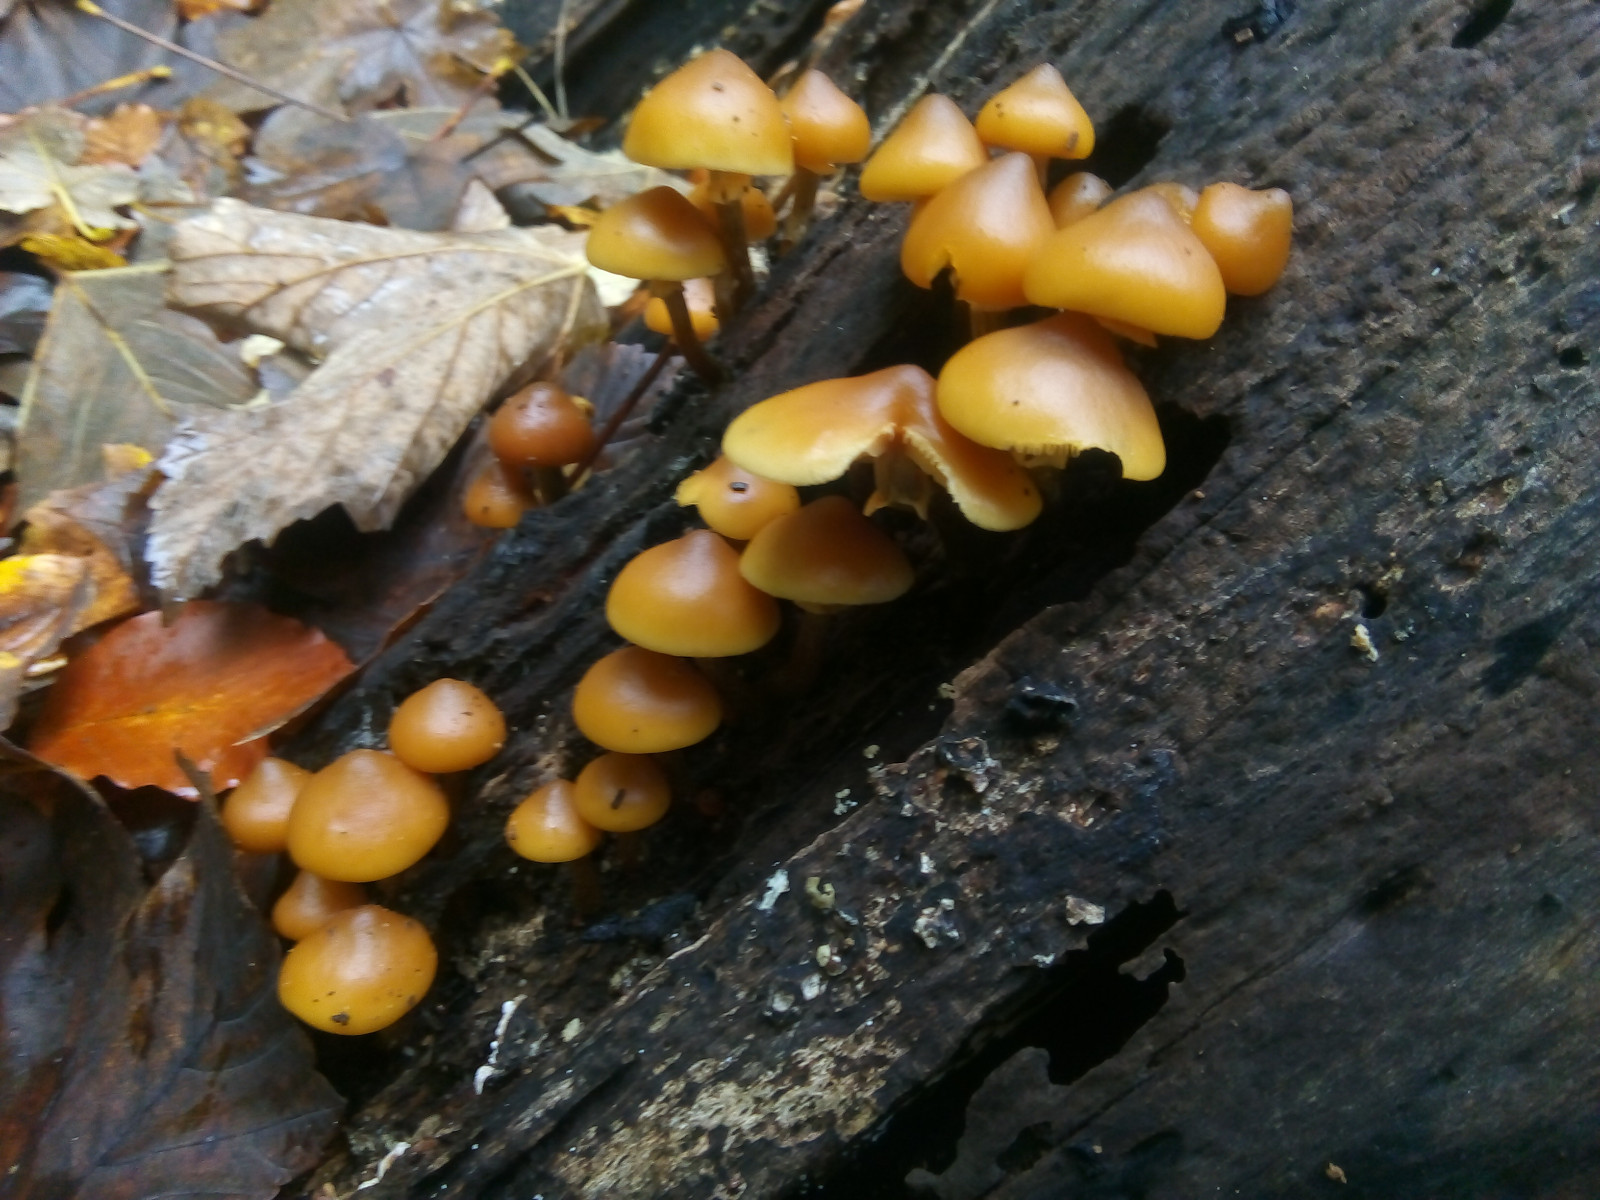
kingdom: Fungi
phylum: Basidiomycota
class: Agaricomycetes
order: Agaricales
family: Hymenogastraceae
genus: Galerina
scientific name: Galerina marginata
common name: randbæltet hjelmhat
